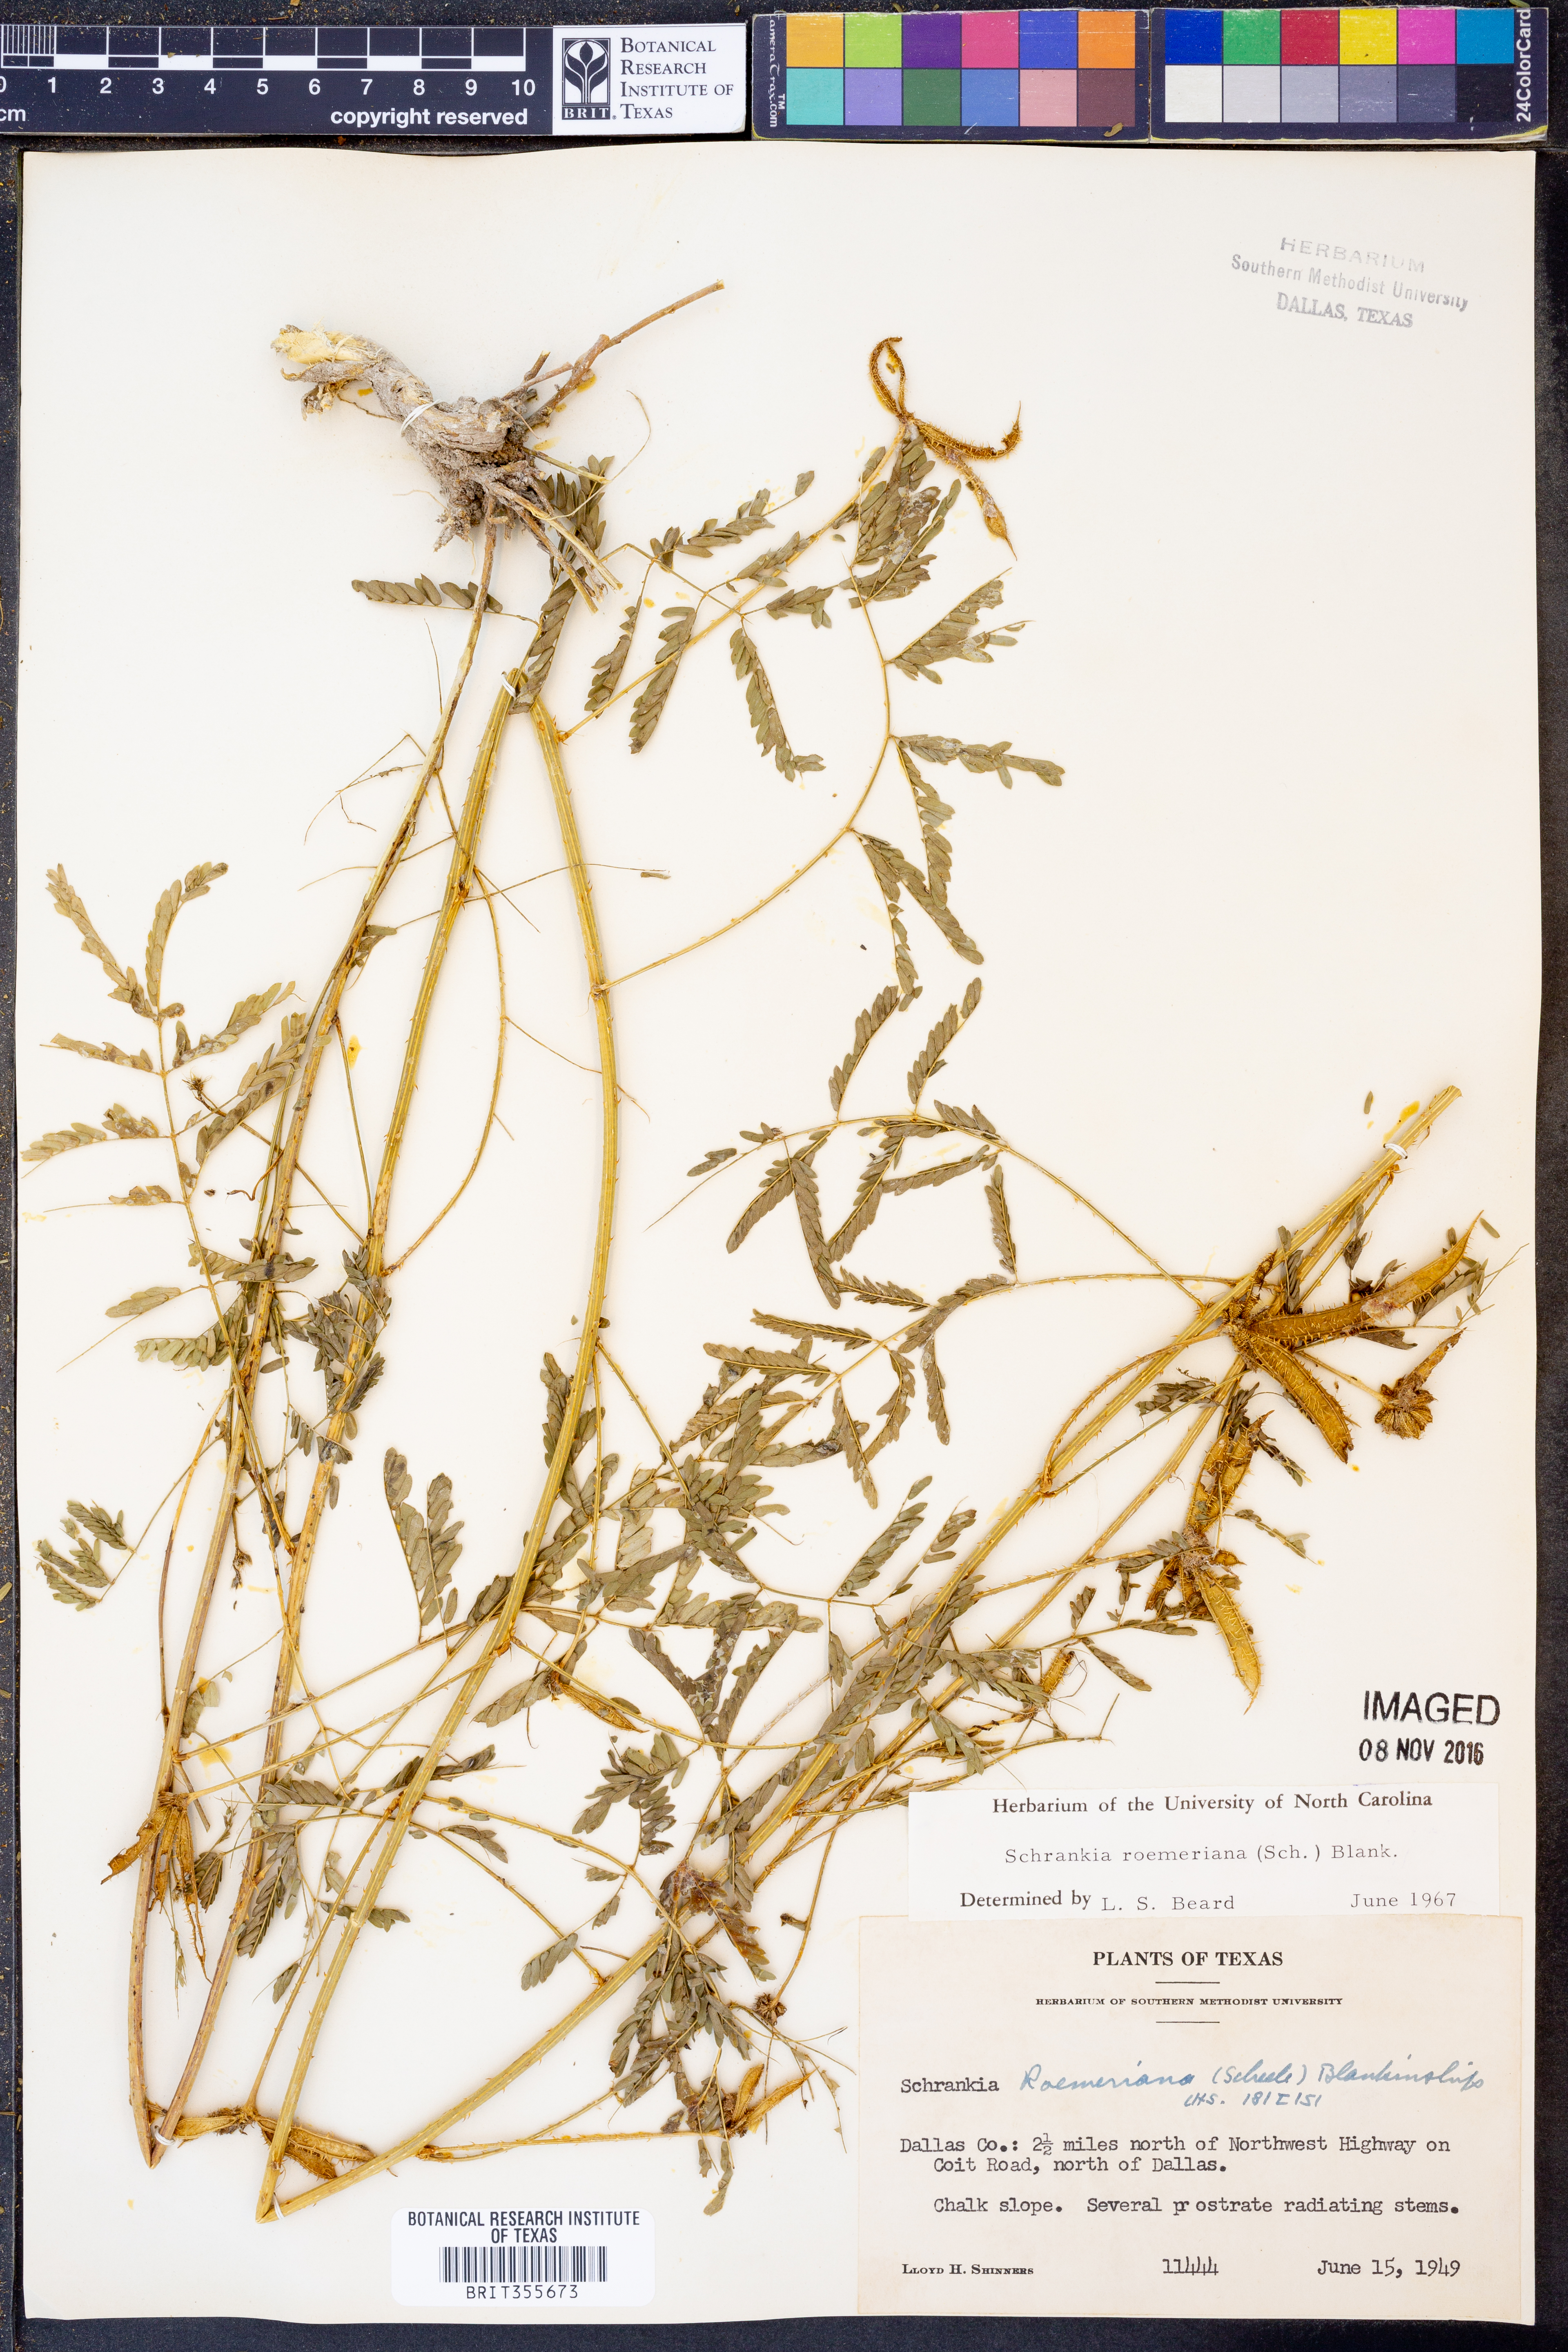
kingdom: Plantae
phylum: Tracheophyta
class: Magnoliopsida
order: Fabales
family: Fabaceae
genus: Mimosa
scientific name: Mimosa quadrivalvis
